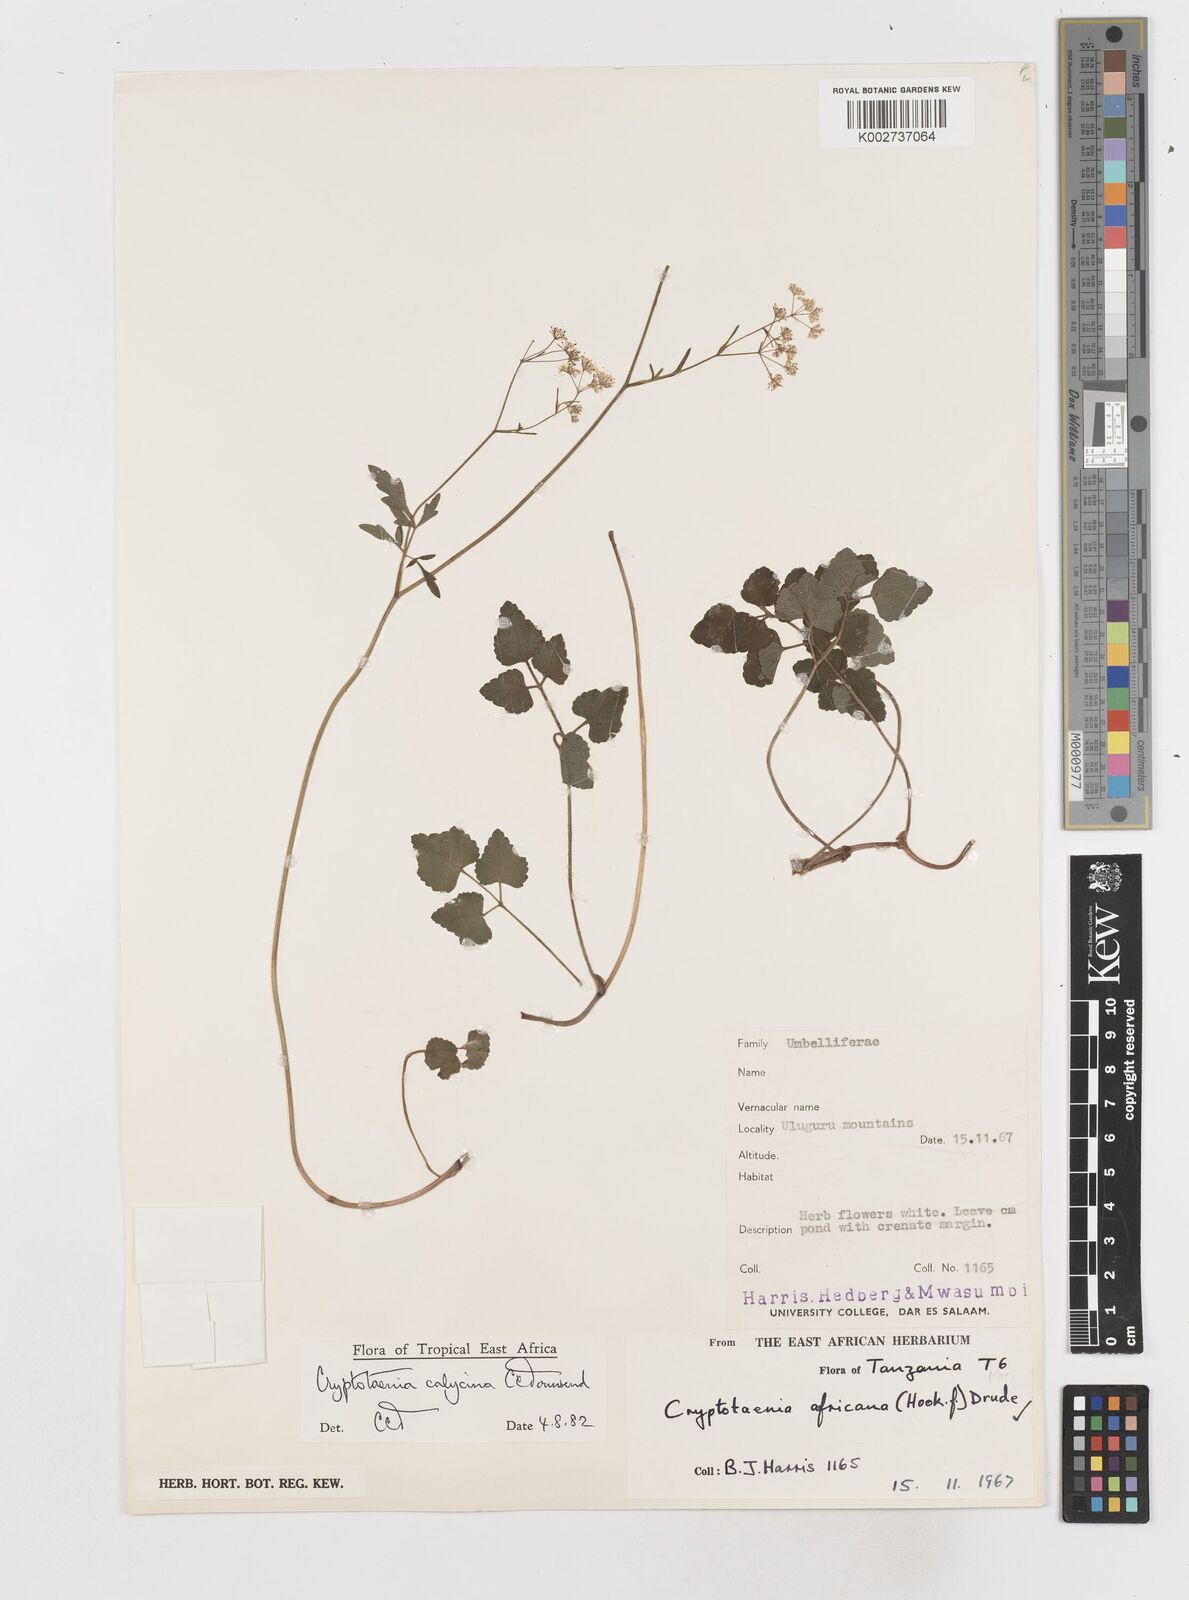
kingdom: Plantae
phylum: Tracheophyta
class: Magnoliopsida
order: Apiales
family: Apiaceae
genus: Cryptotaenia
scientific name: Cryptotaenia calycina
